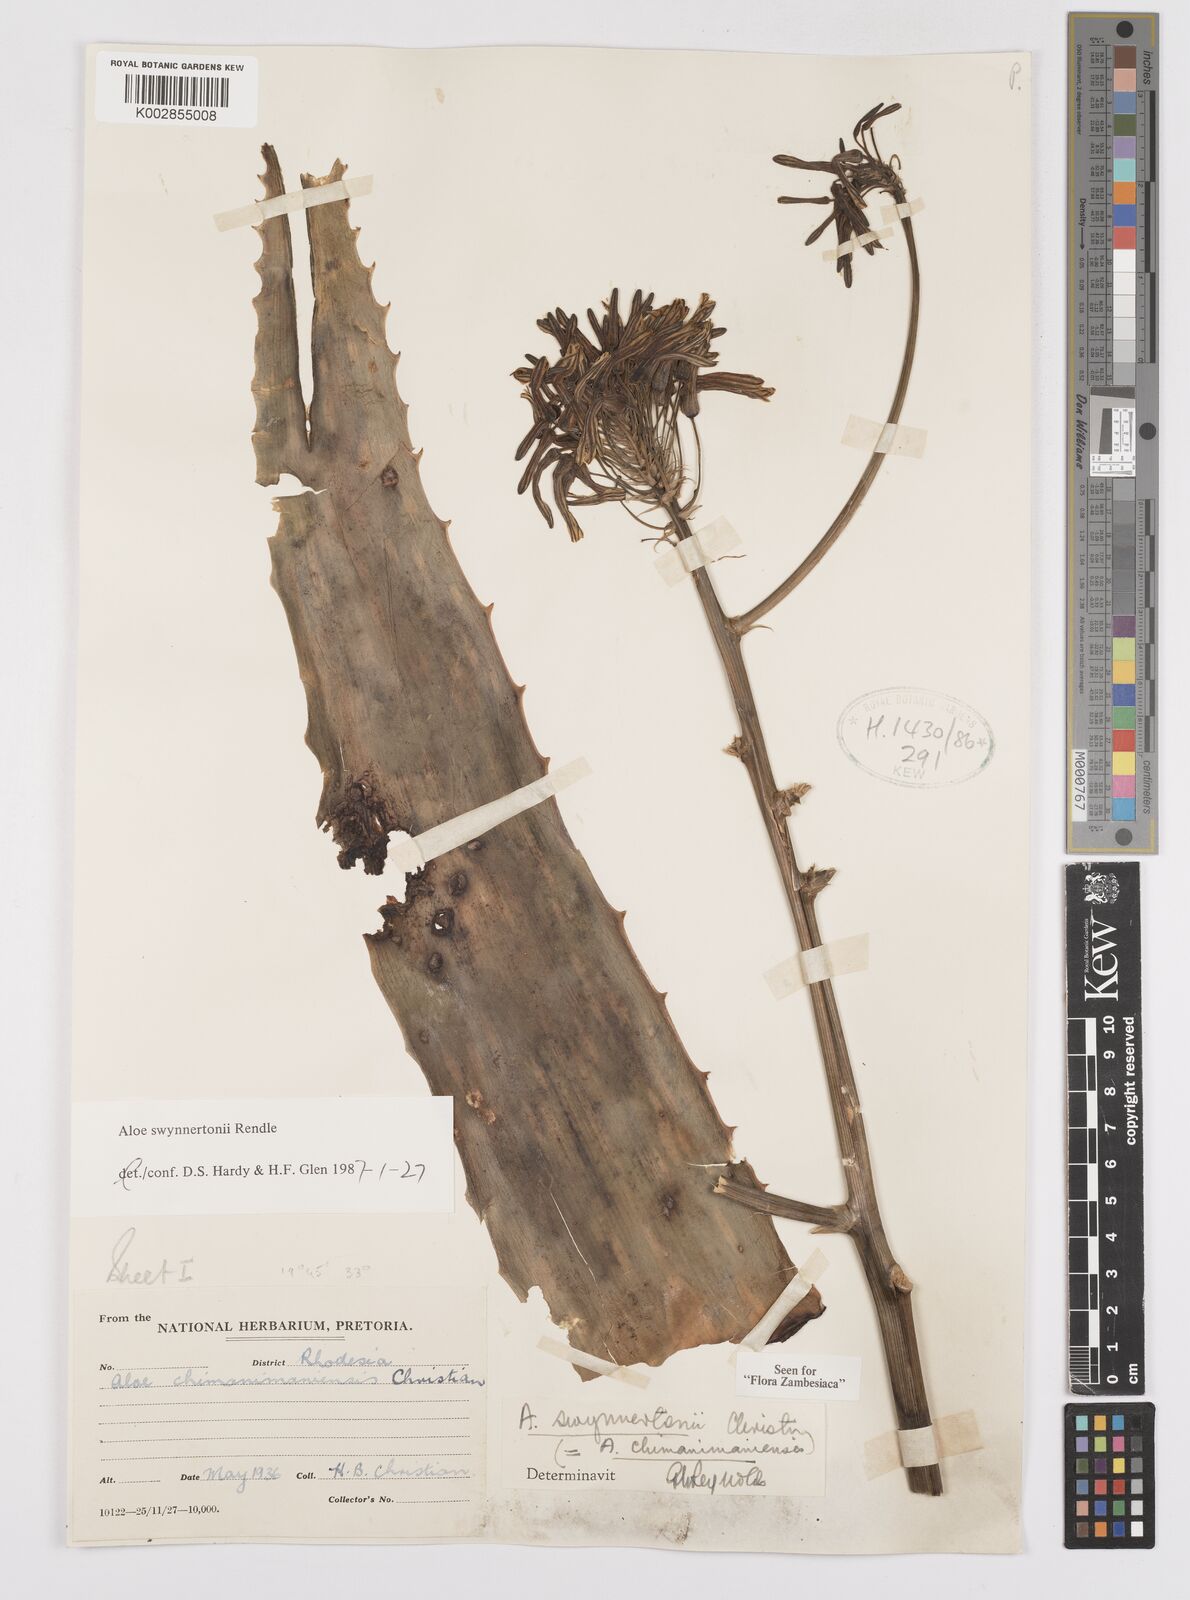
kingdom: Plantae
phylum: Tracheophyta
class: Liliopsida
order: Asparagales
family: Asphodelaceae
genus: Aloe
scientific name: Aloe swynnertonii
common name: Swynnerton's aloe
